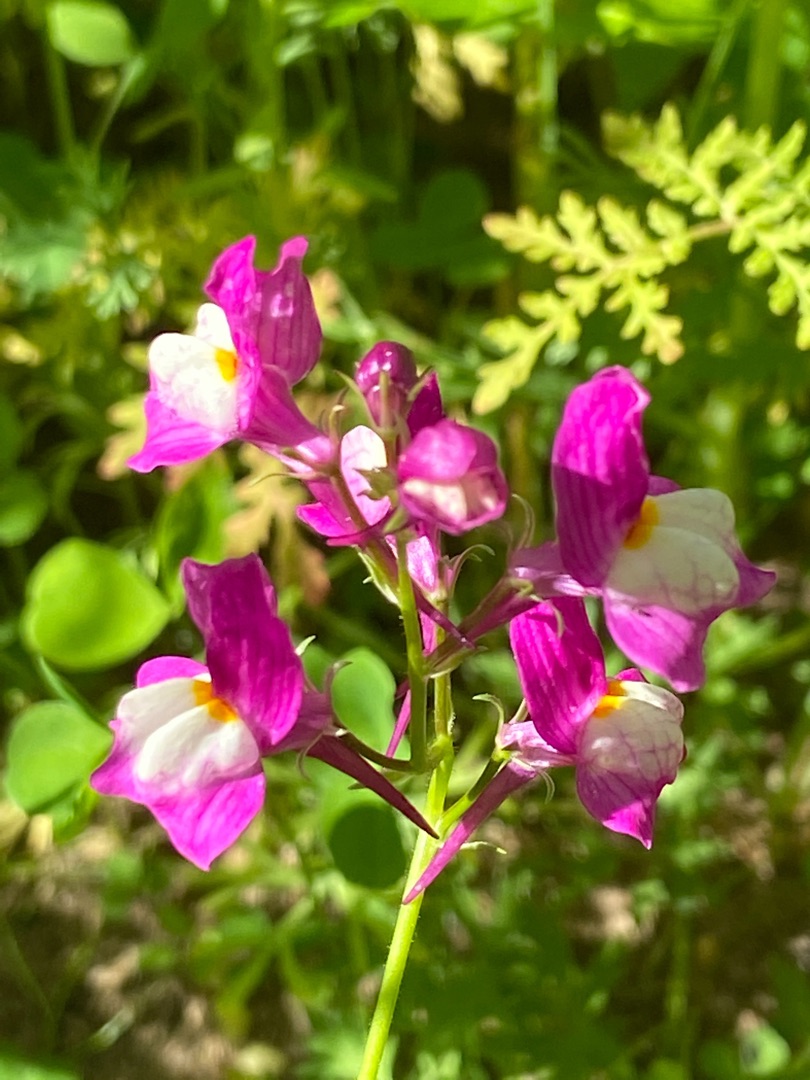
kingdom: Plantae
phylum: Tracheophyta
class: Magnoliopsida
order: Lamiales
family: Plantaginaceae
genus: Linaria
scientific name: Linaria
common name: Torskemund (Linaria-slægten)
